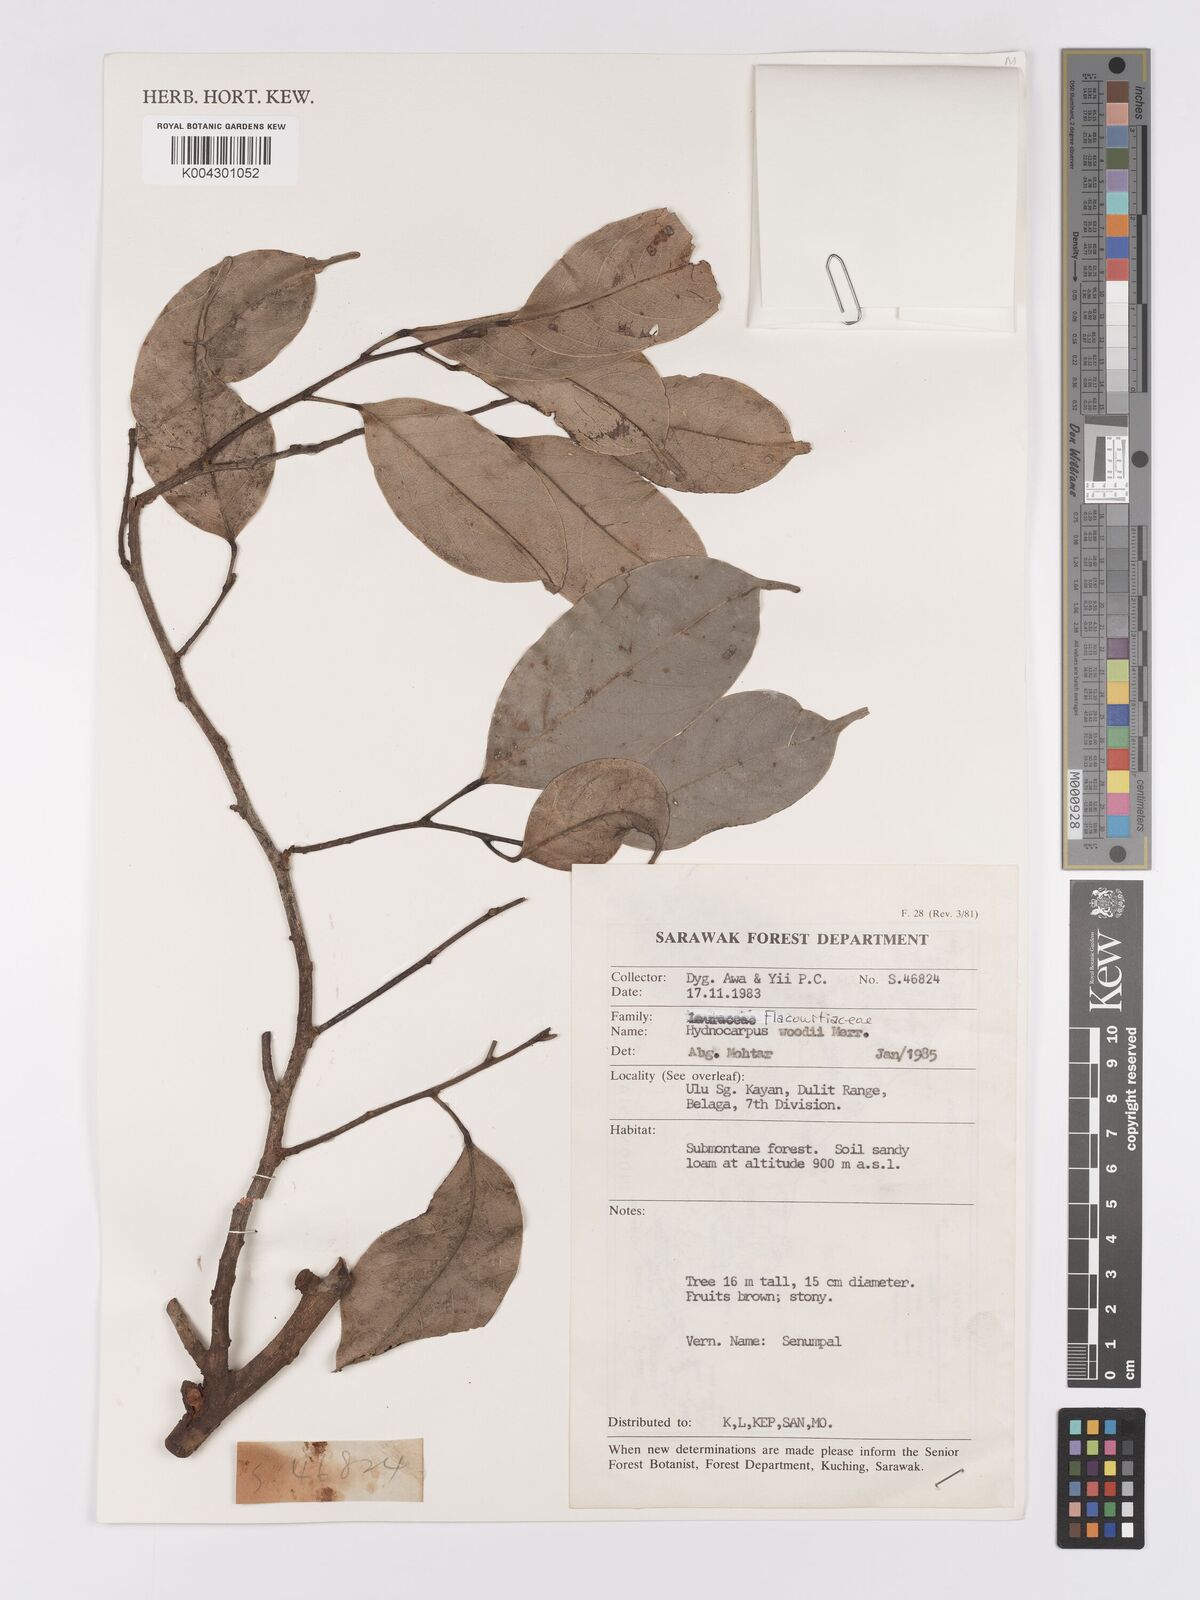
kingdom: Plantae
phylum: Tracheophyta
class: Magnoliopsida
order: Malpighiales
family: Achariaceae
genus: Hydnocarpus
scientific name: Hydnocarpus woodii
